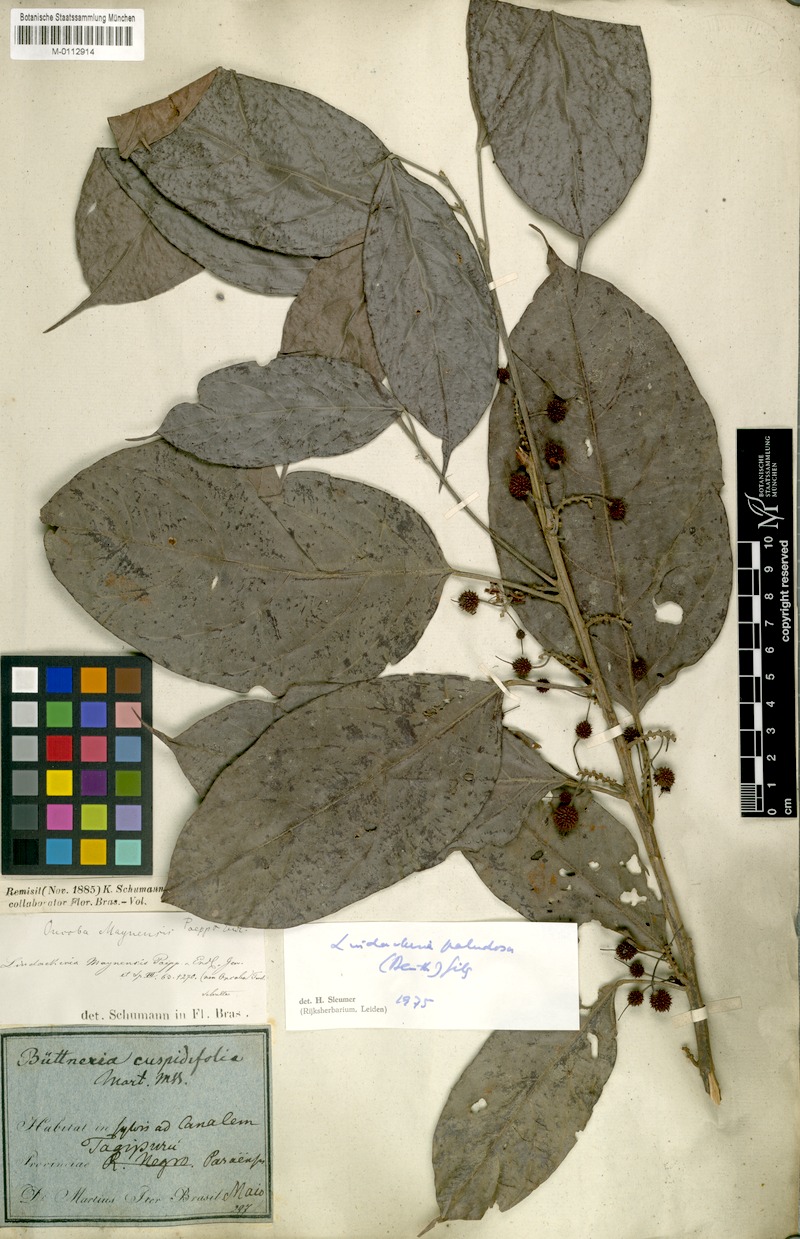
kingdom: Plantae
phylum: Tracheophyta
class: Magnoliopsida
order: Malpighiales
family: Achariaceae
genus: Lindackeria
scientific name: Lindackeria paludosa
